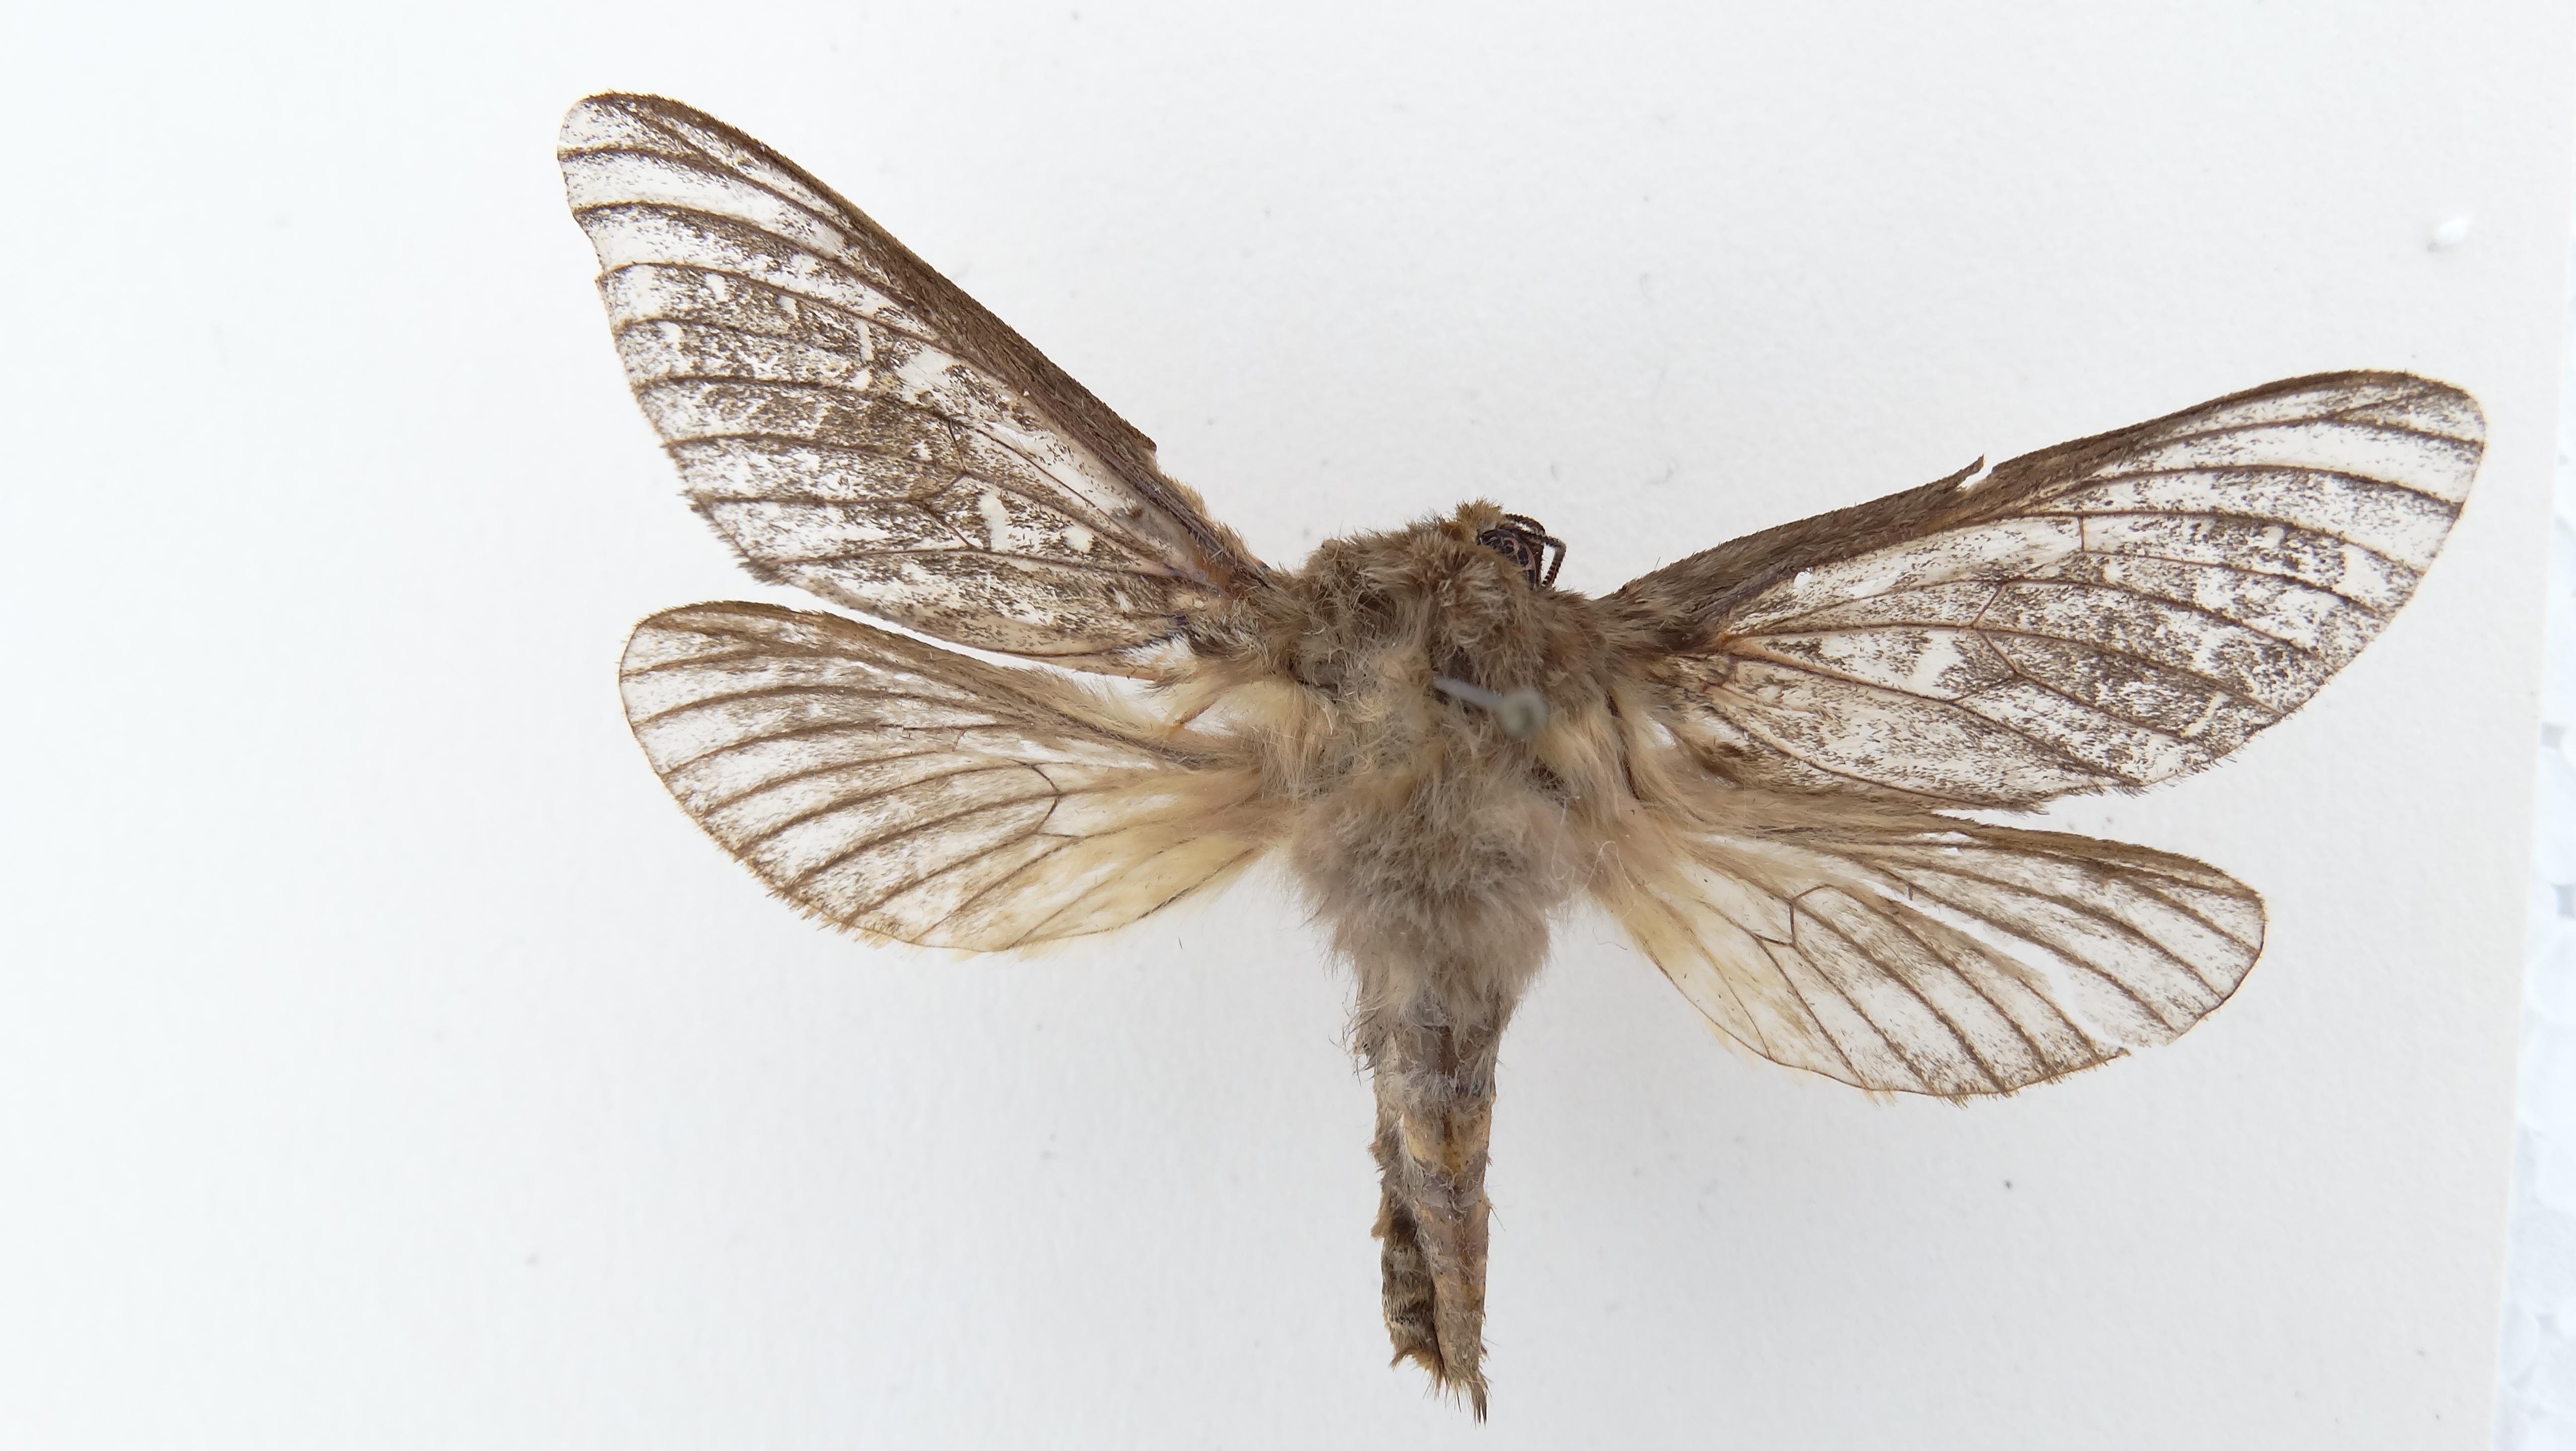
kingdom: Animalia
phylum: Arthropoda
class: Insecta
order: Lepidoptera
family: Hepialidae
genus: Callipielus
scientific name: Callipielus digitata
